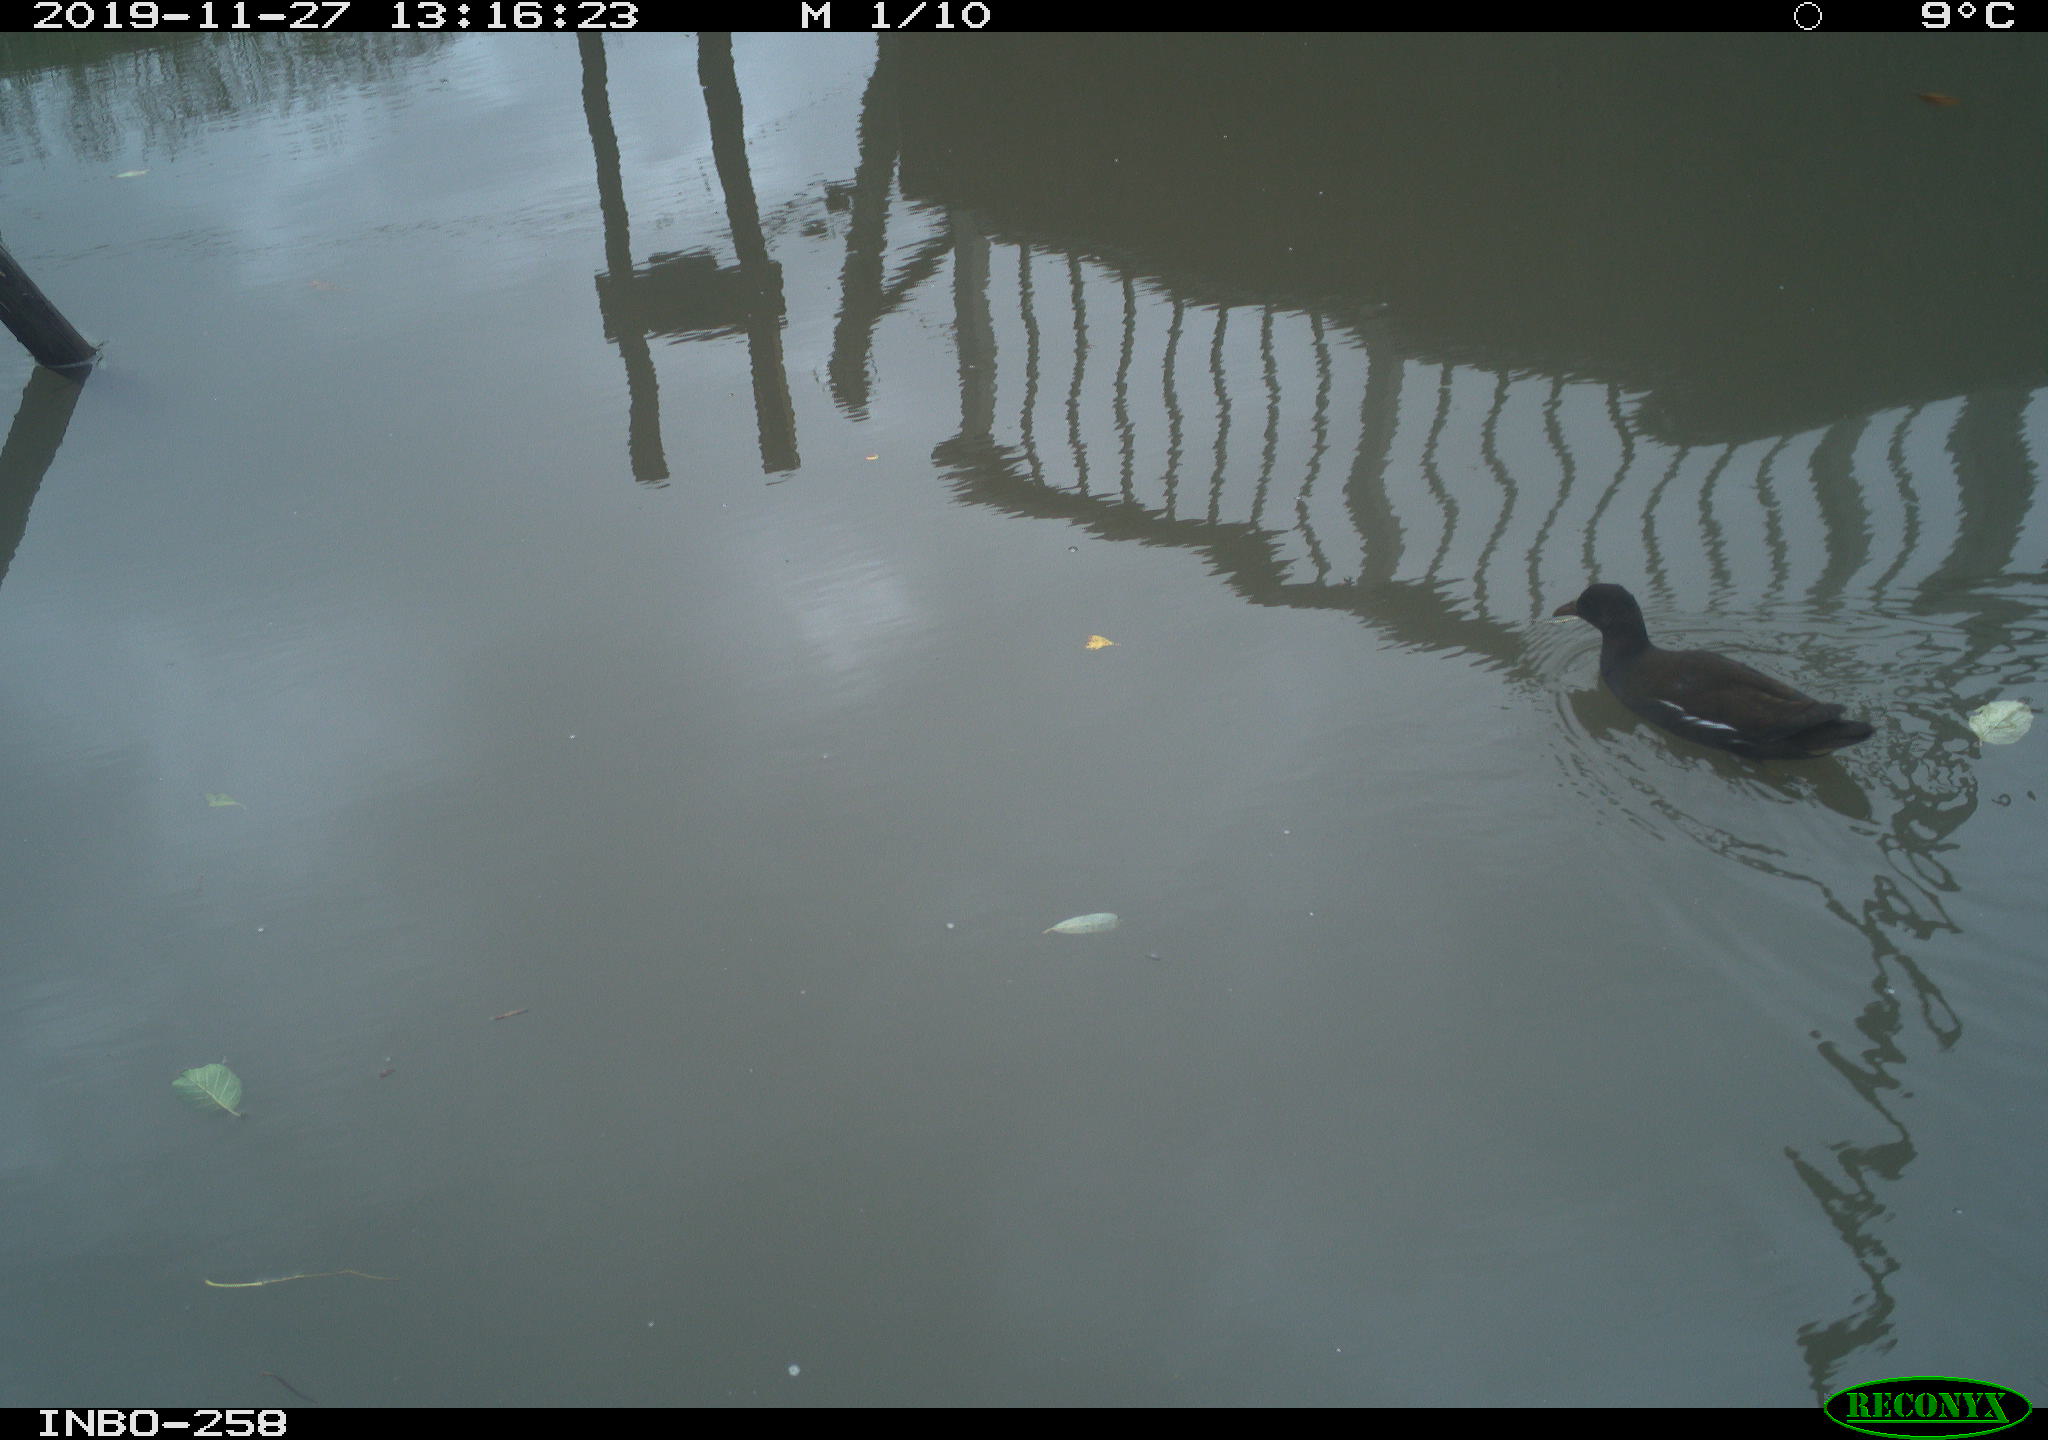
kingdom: Animalia
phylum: Chordata
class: Aves
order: Gruiformes
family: Rallidae
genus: Gallinula
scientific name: Gallinula chloropus
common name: Common moorhen
